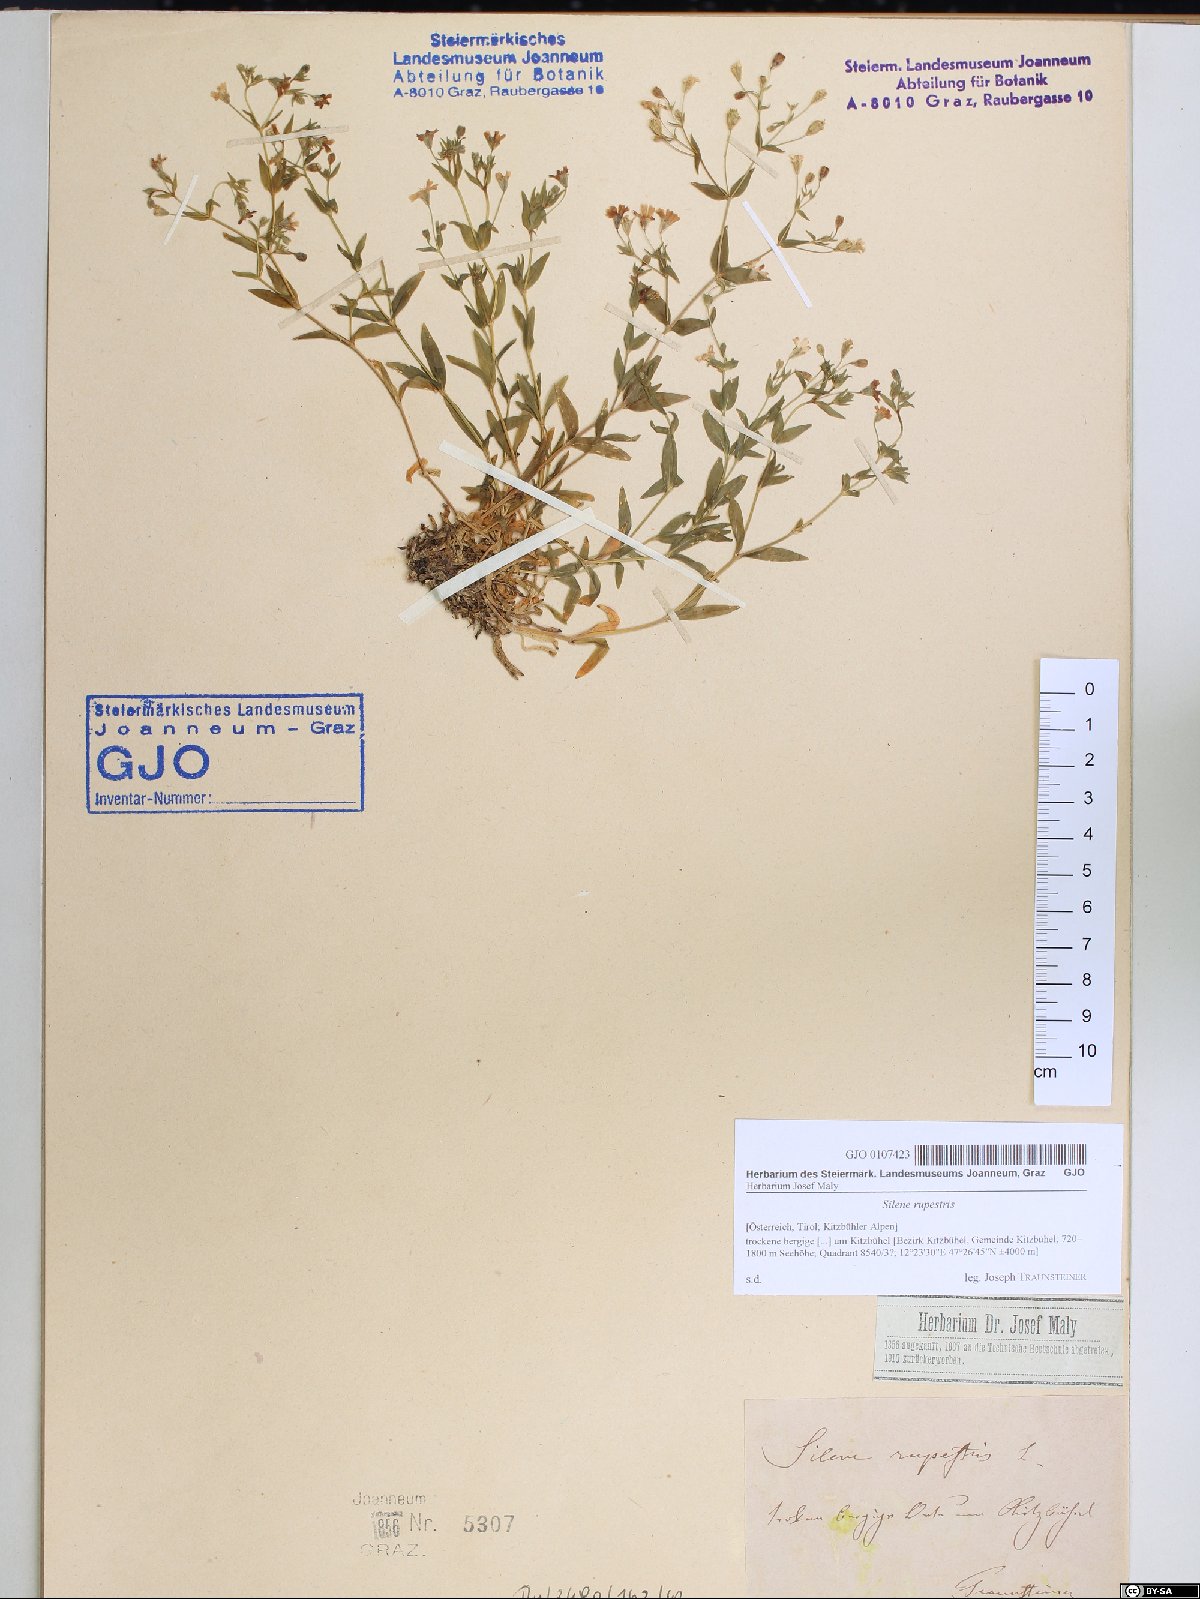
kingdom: Plantae
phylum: Tracheophyta
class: Magnoliopsida
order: Caryophyllales
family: Caryophyllaceae
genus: Atocion
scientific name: Atocion rupestre
